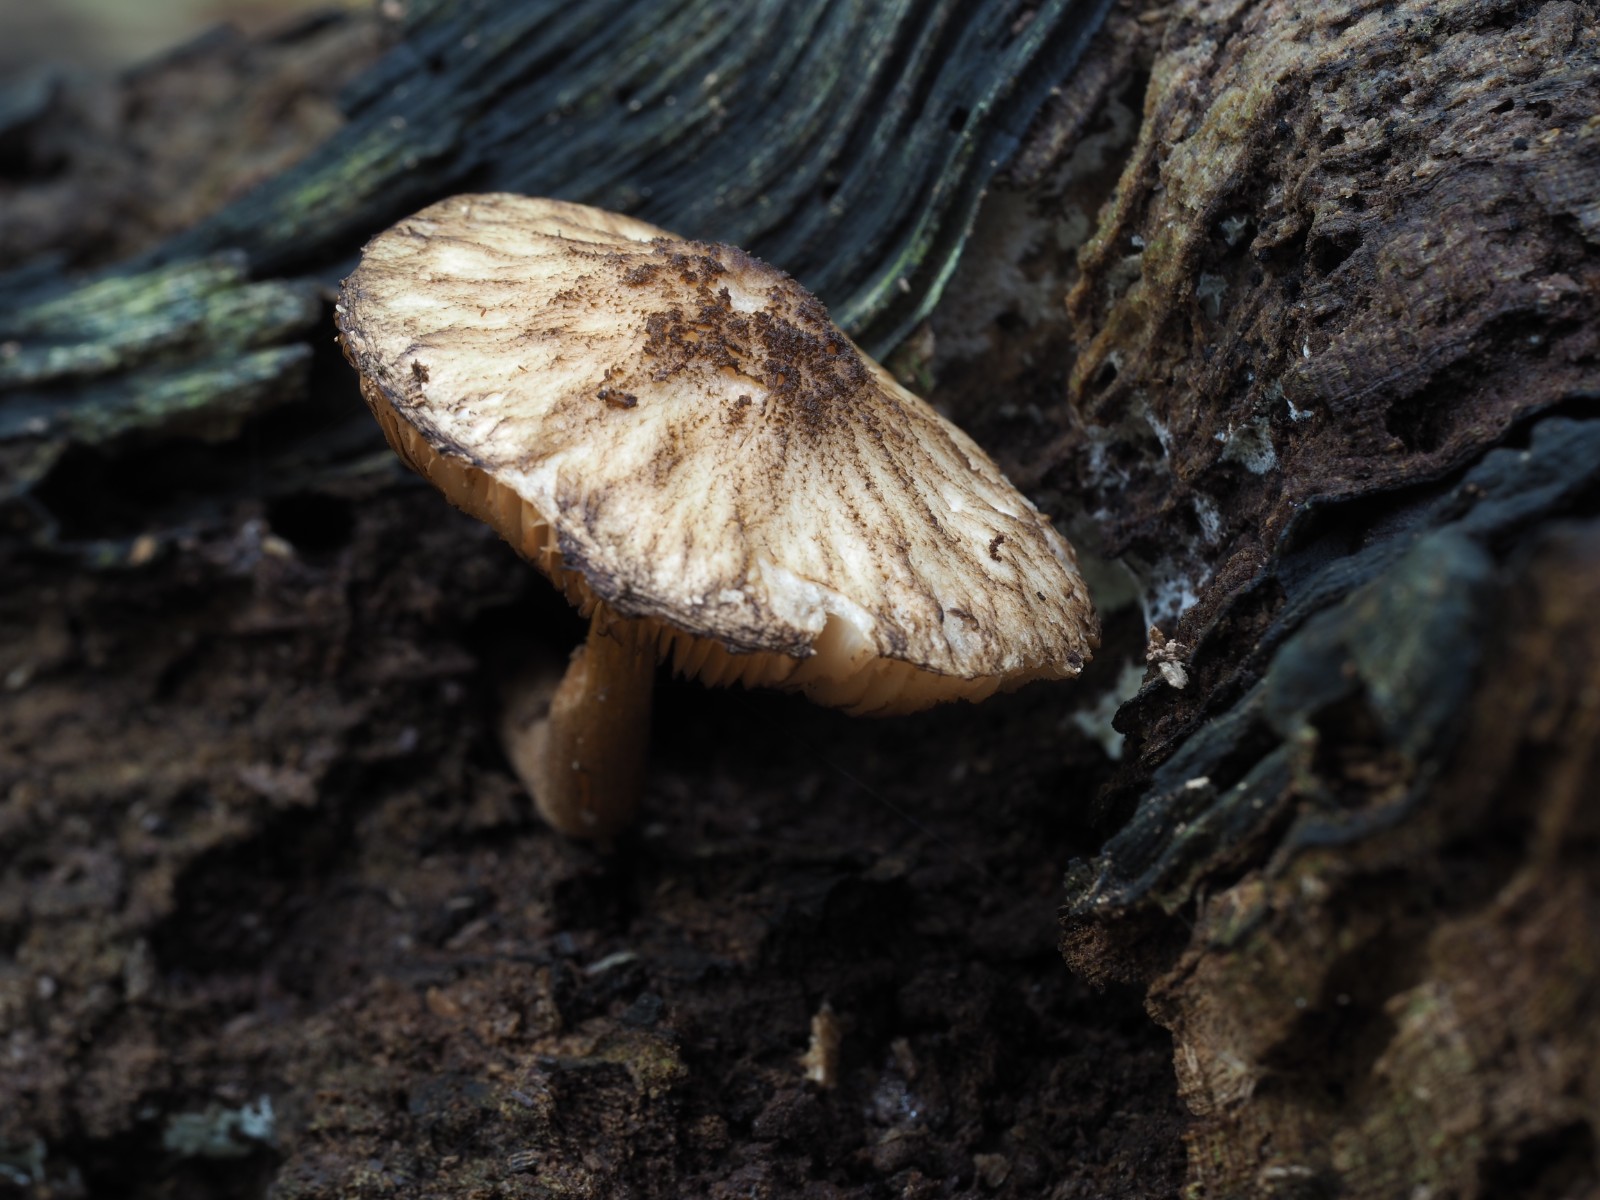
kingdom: Fungi
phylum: Basidiomycota
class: Agaricomycetes
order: Agaricales
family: Pluteaceae
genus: Pluteus
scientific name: Pluteus umbrosus
